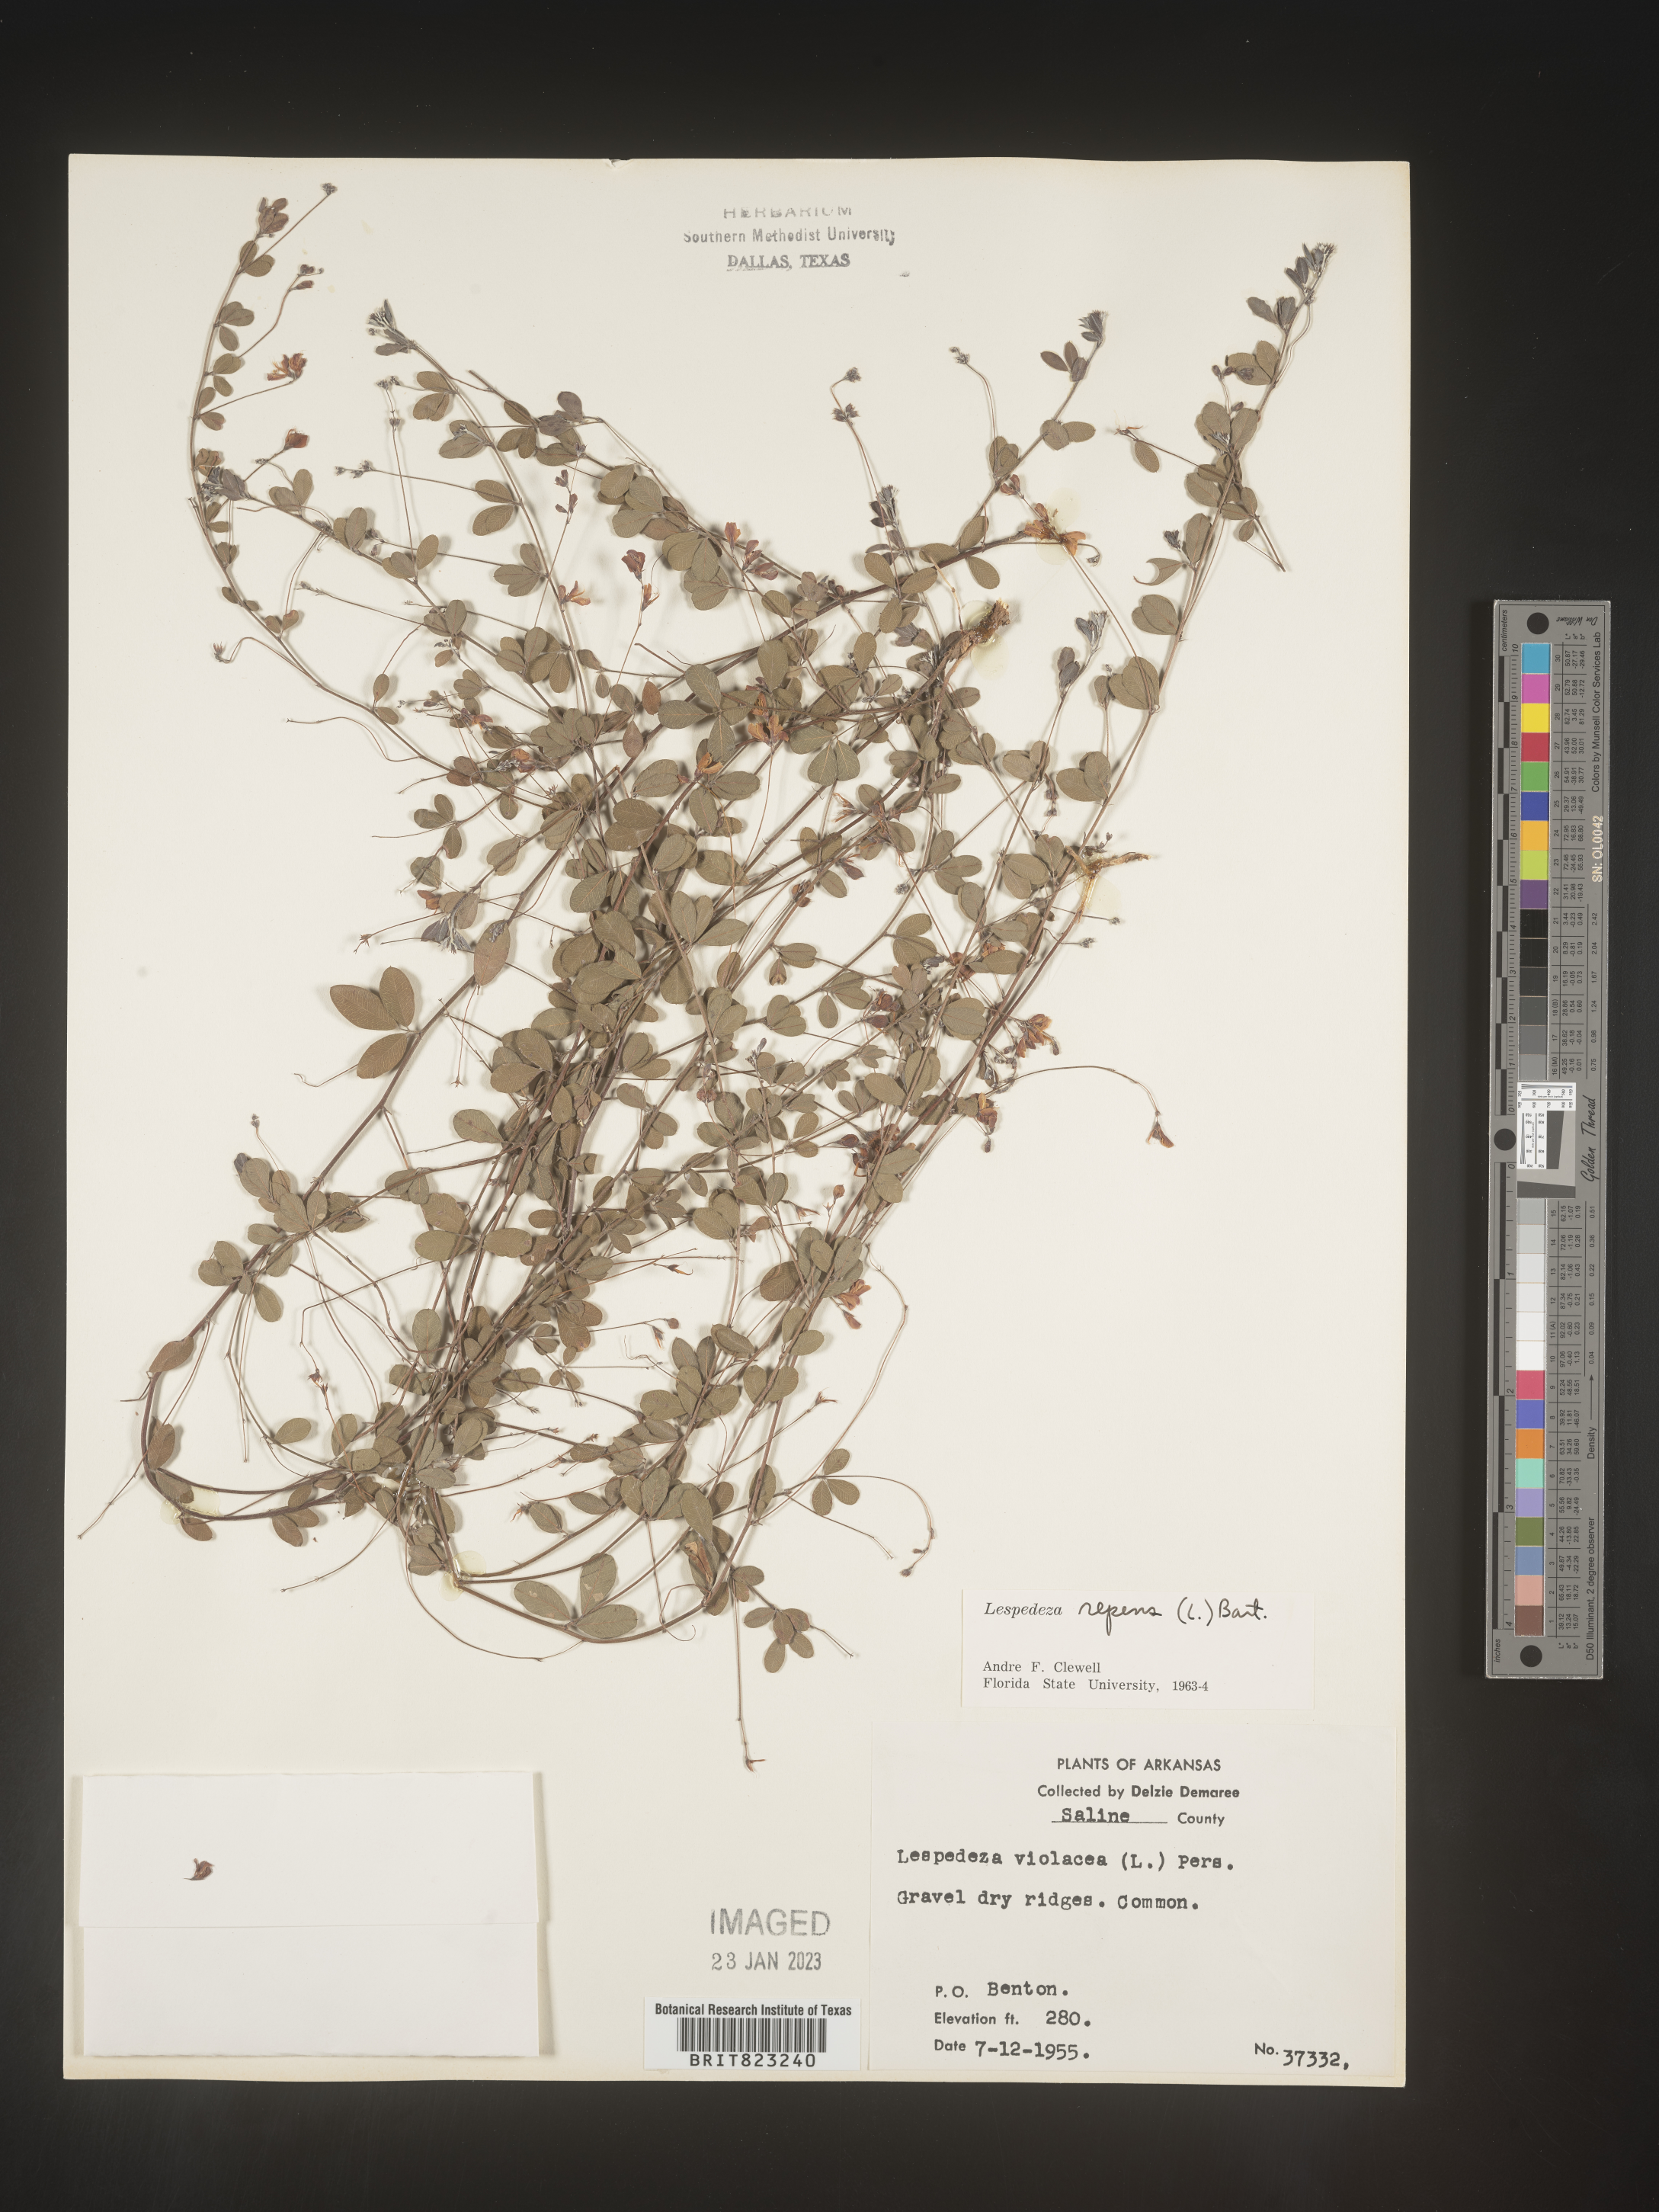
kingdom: Plantae
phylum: Tracheophyta
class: Magnoliopsida
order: Fabales
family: Fabaceae
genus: Lespedeza
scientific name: Lespedeza repens
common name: Creeping bush-clover
